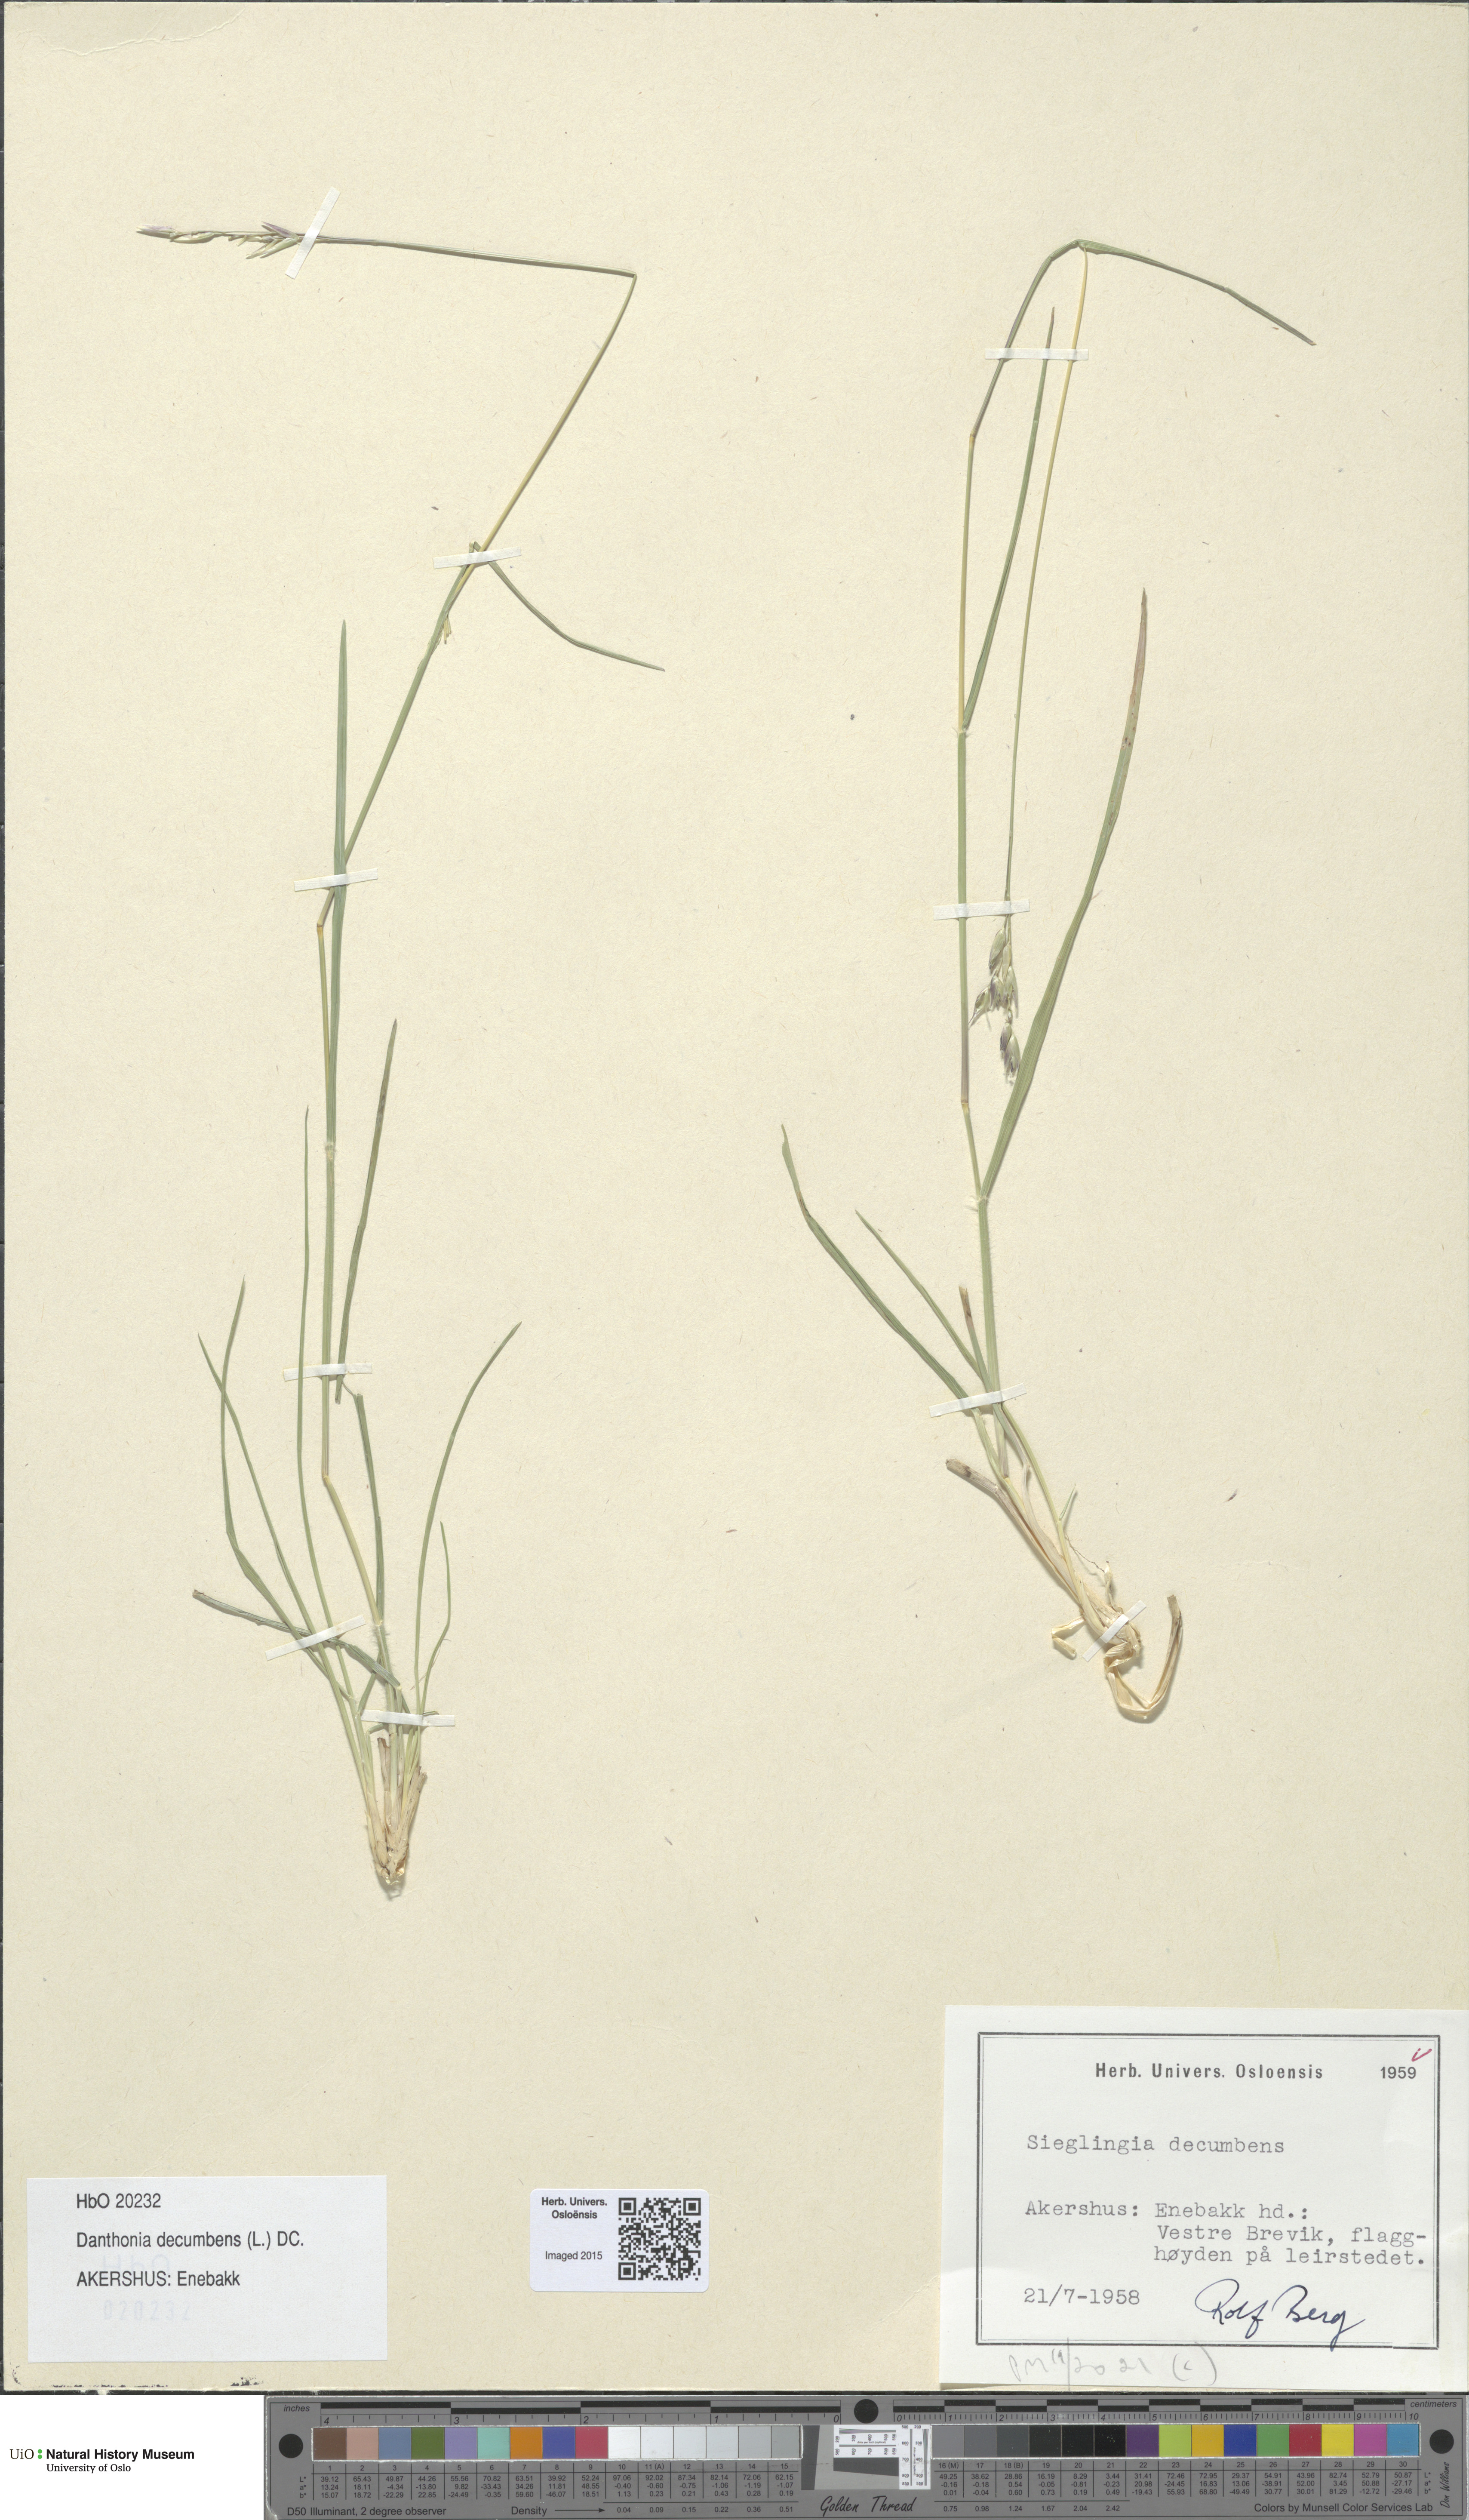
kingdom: Plantae
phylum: Tracheophyta
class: Liliopsida
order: Poales
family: Poaceae
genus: Danthonia
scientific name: Danthonia decumbens
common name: Common heathgrass
